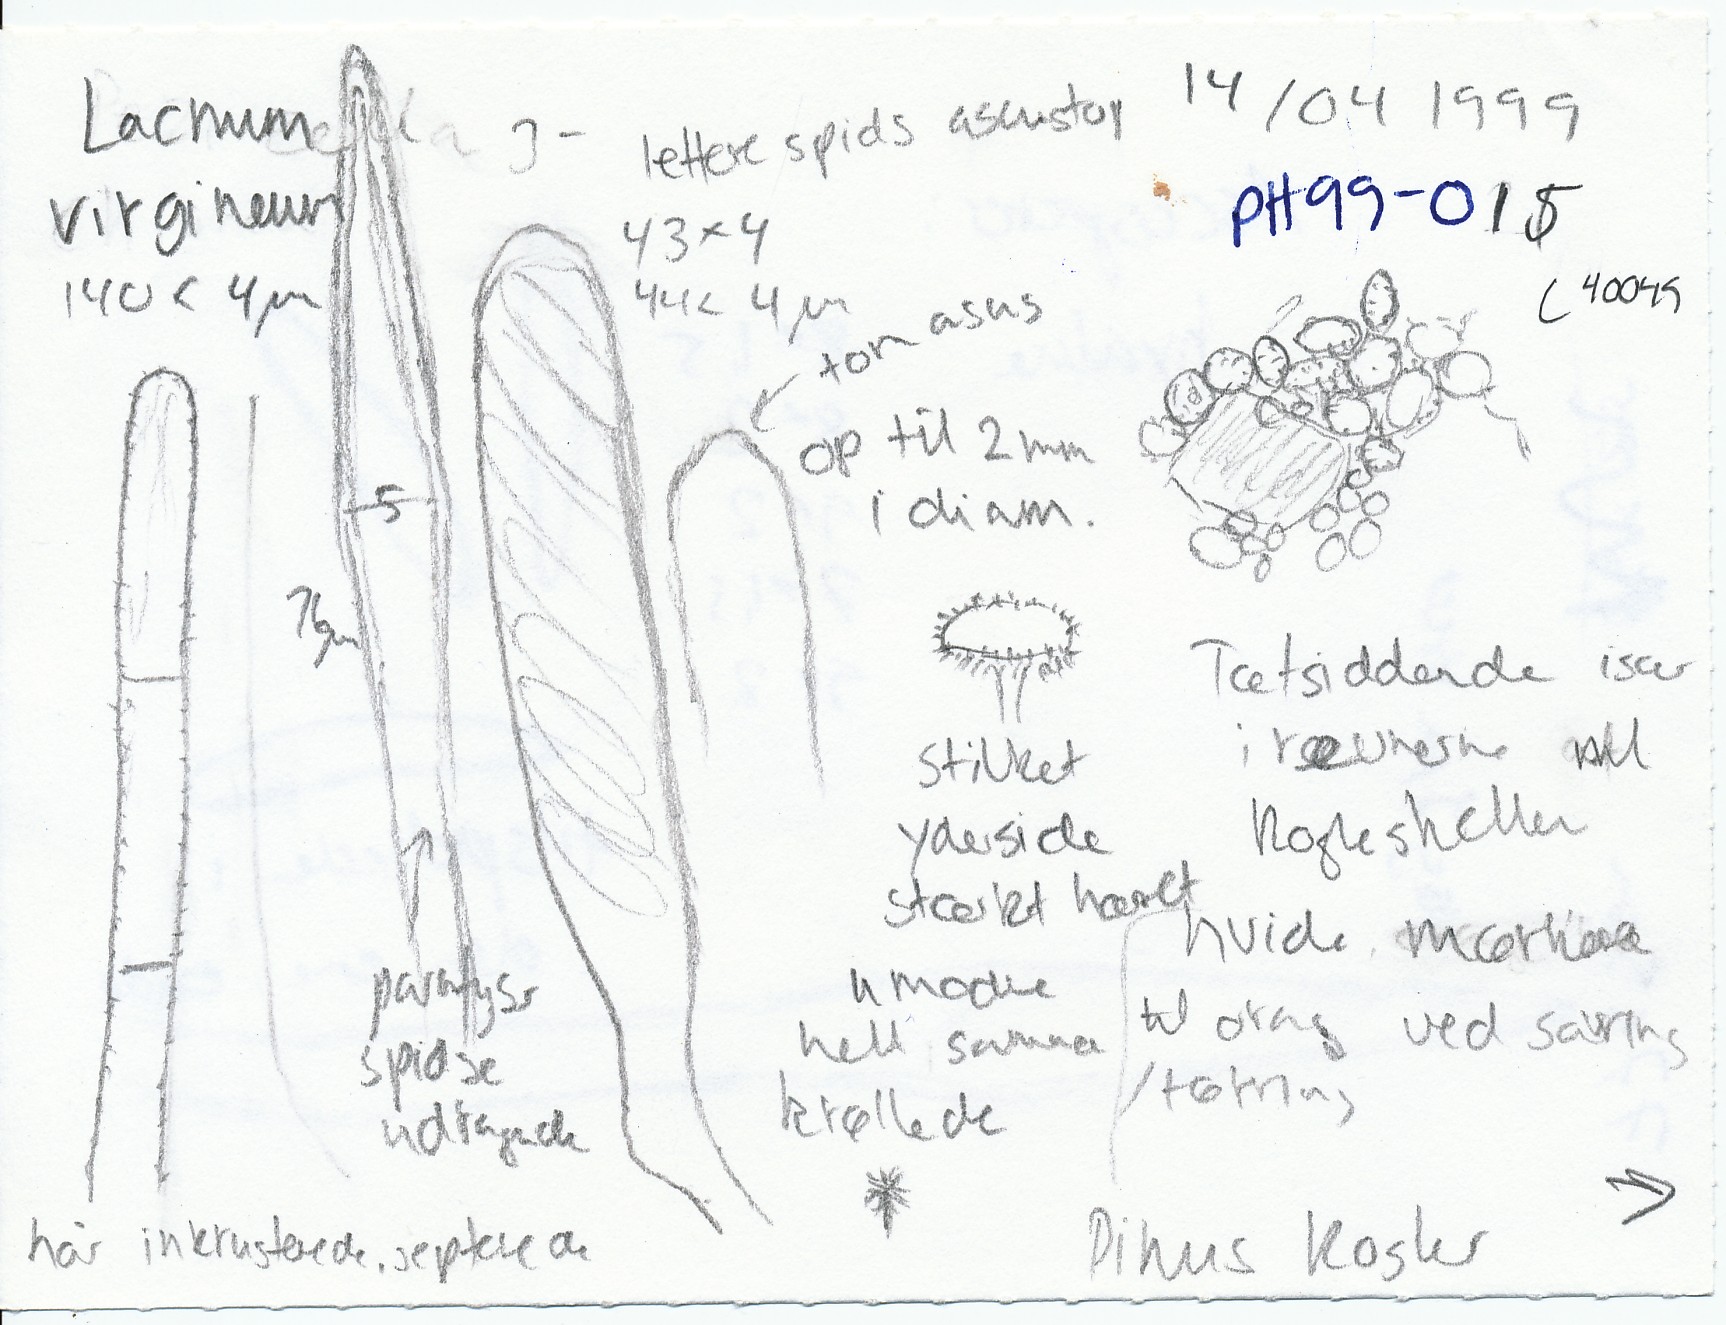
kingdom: Fungi
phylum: Ascomycota
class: Leotiomycetes
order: Helotiales
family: Lachnaceae
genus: Lachnum
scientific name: Lachnum virgineum
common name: jomfru-frynseskive
